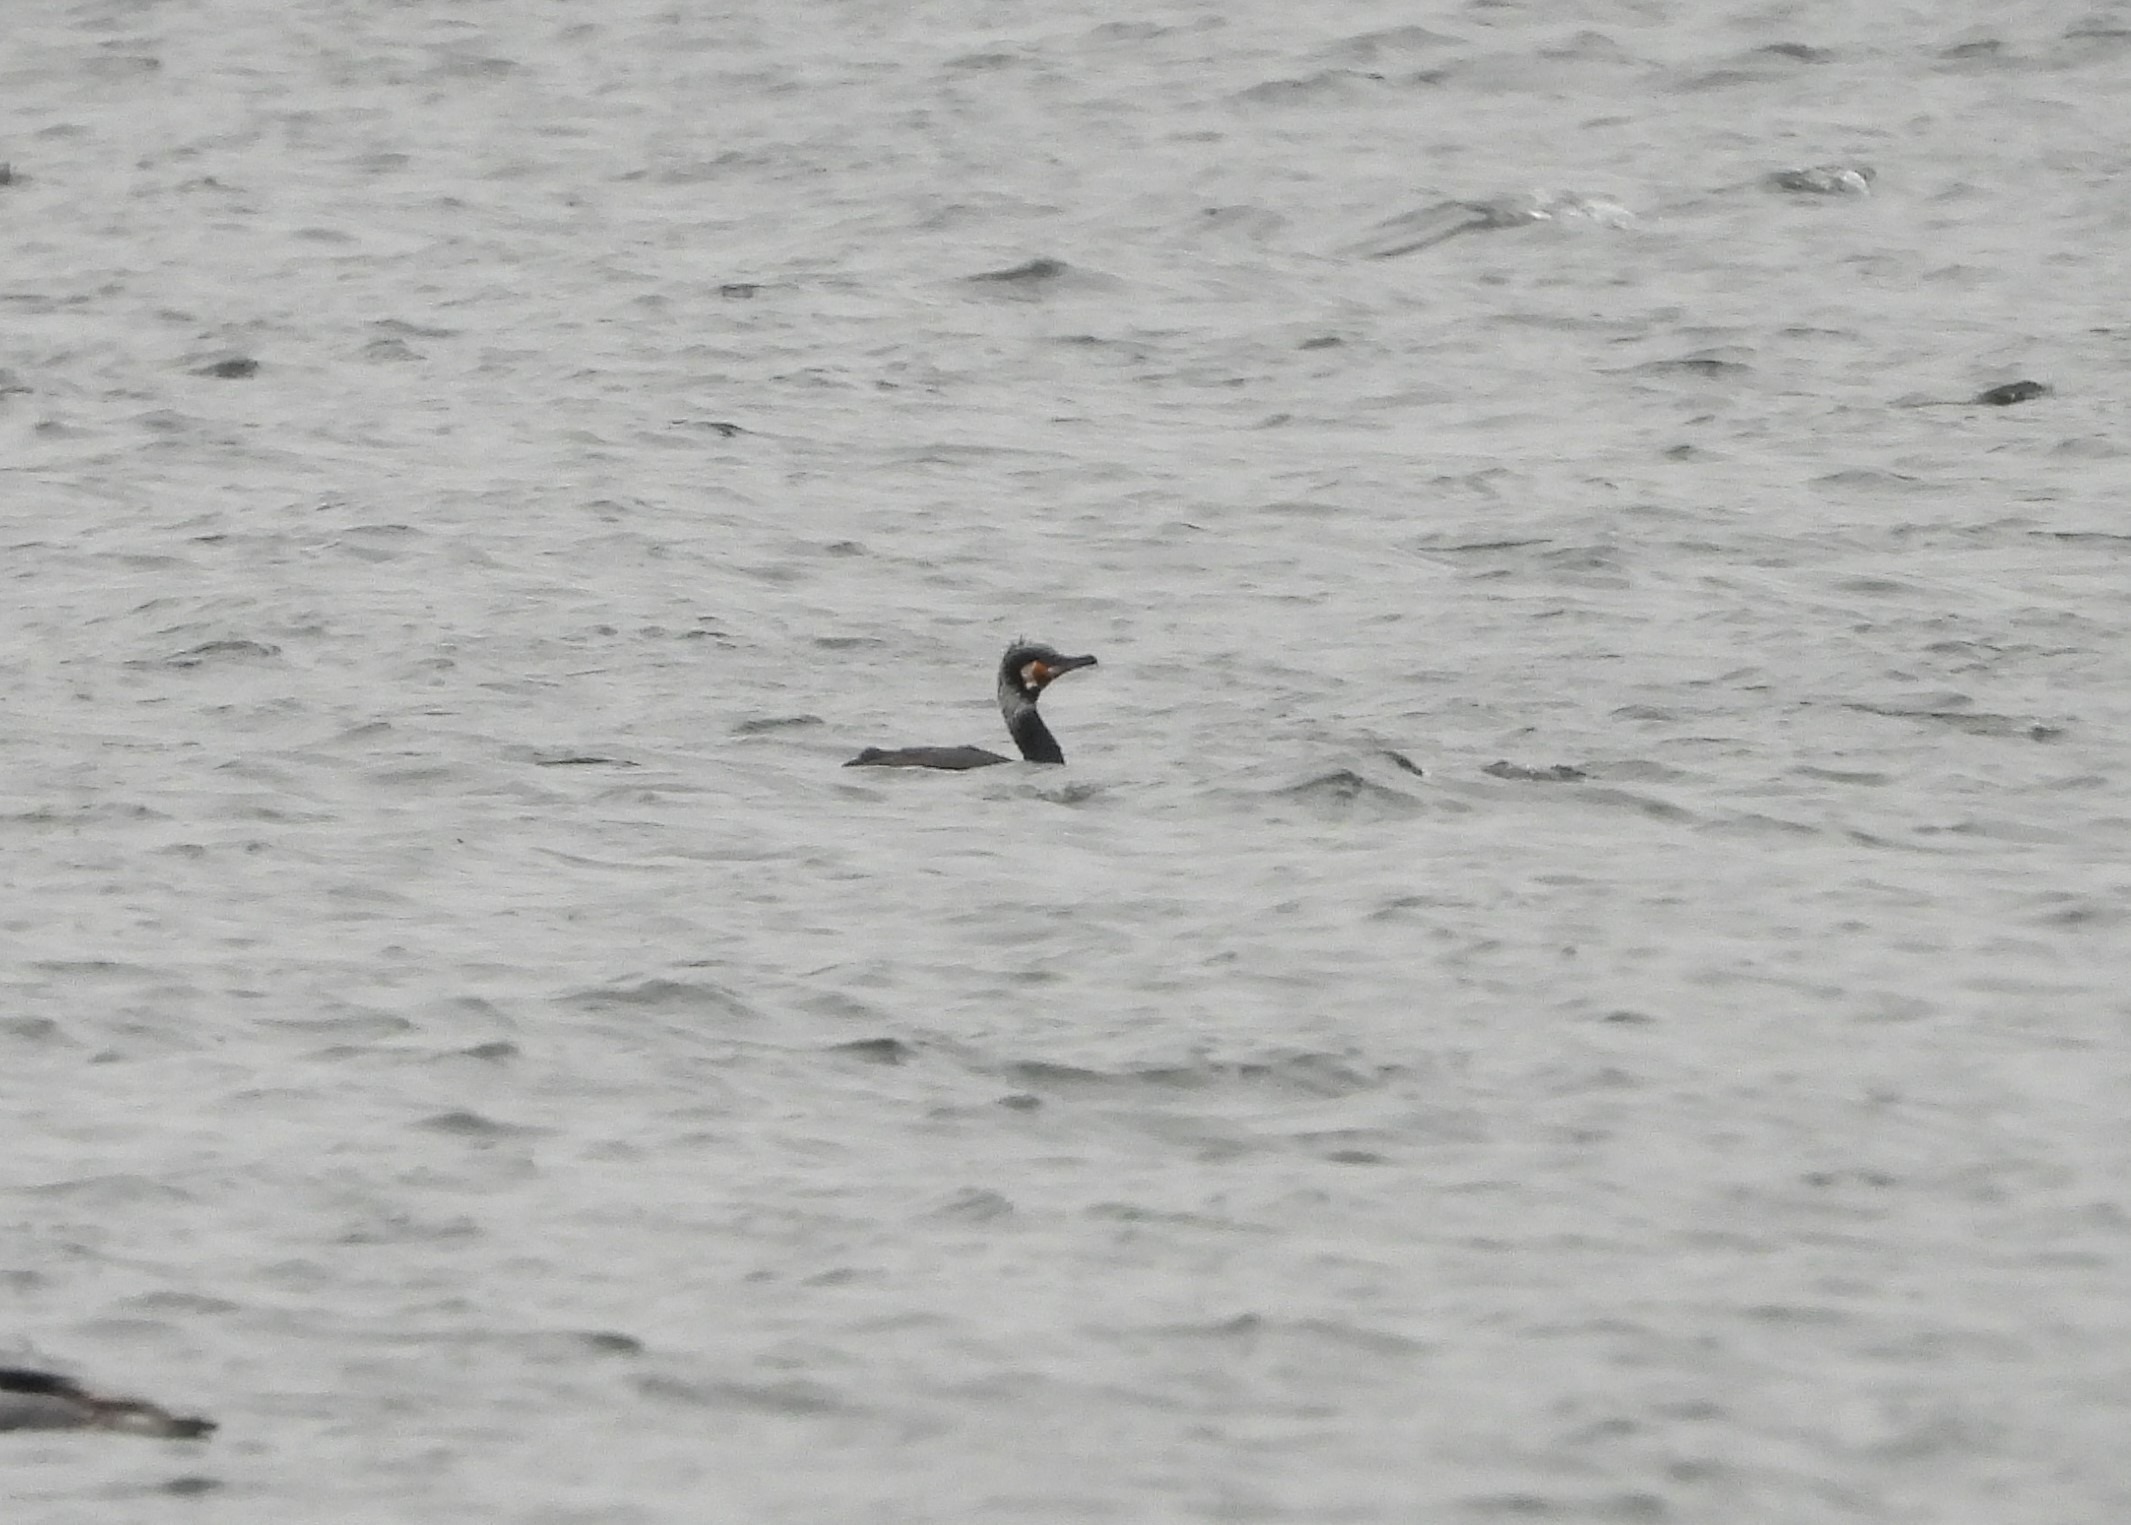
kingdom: Animalia
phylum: Chordata
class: Aves
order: Suliformes
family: Phalacrocoracidae
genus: Phalacrocorax
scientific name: Phalacrocorax carbo
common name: Skarv
